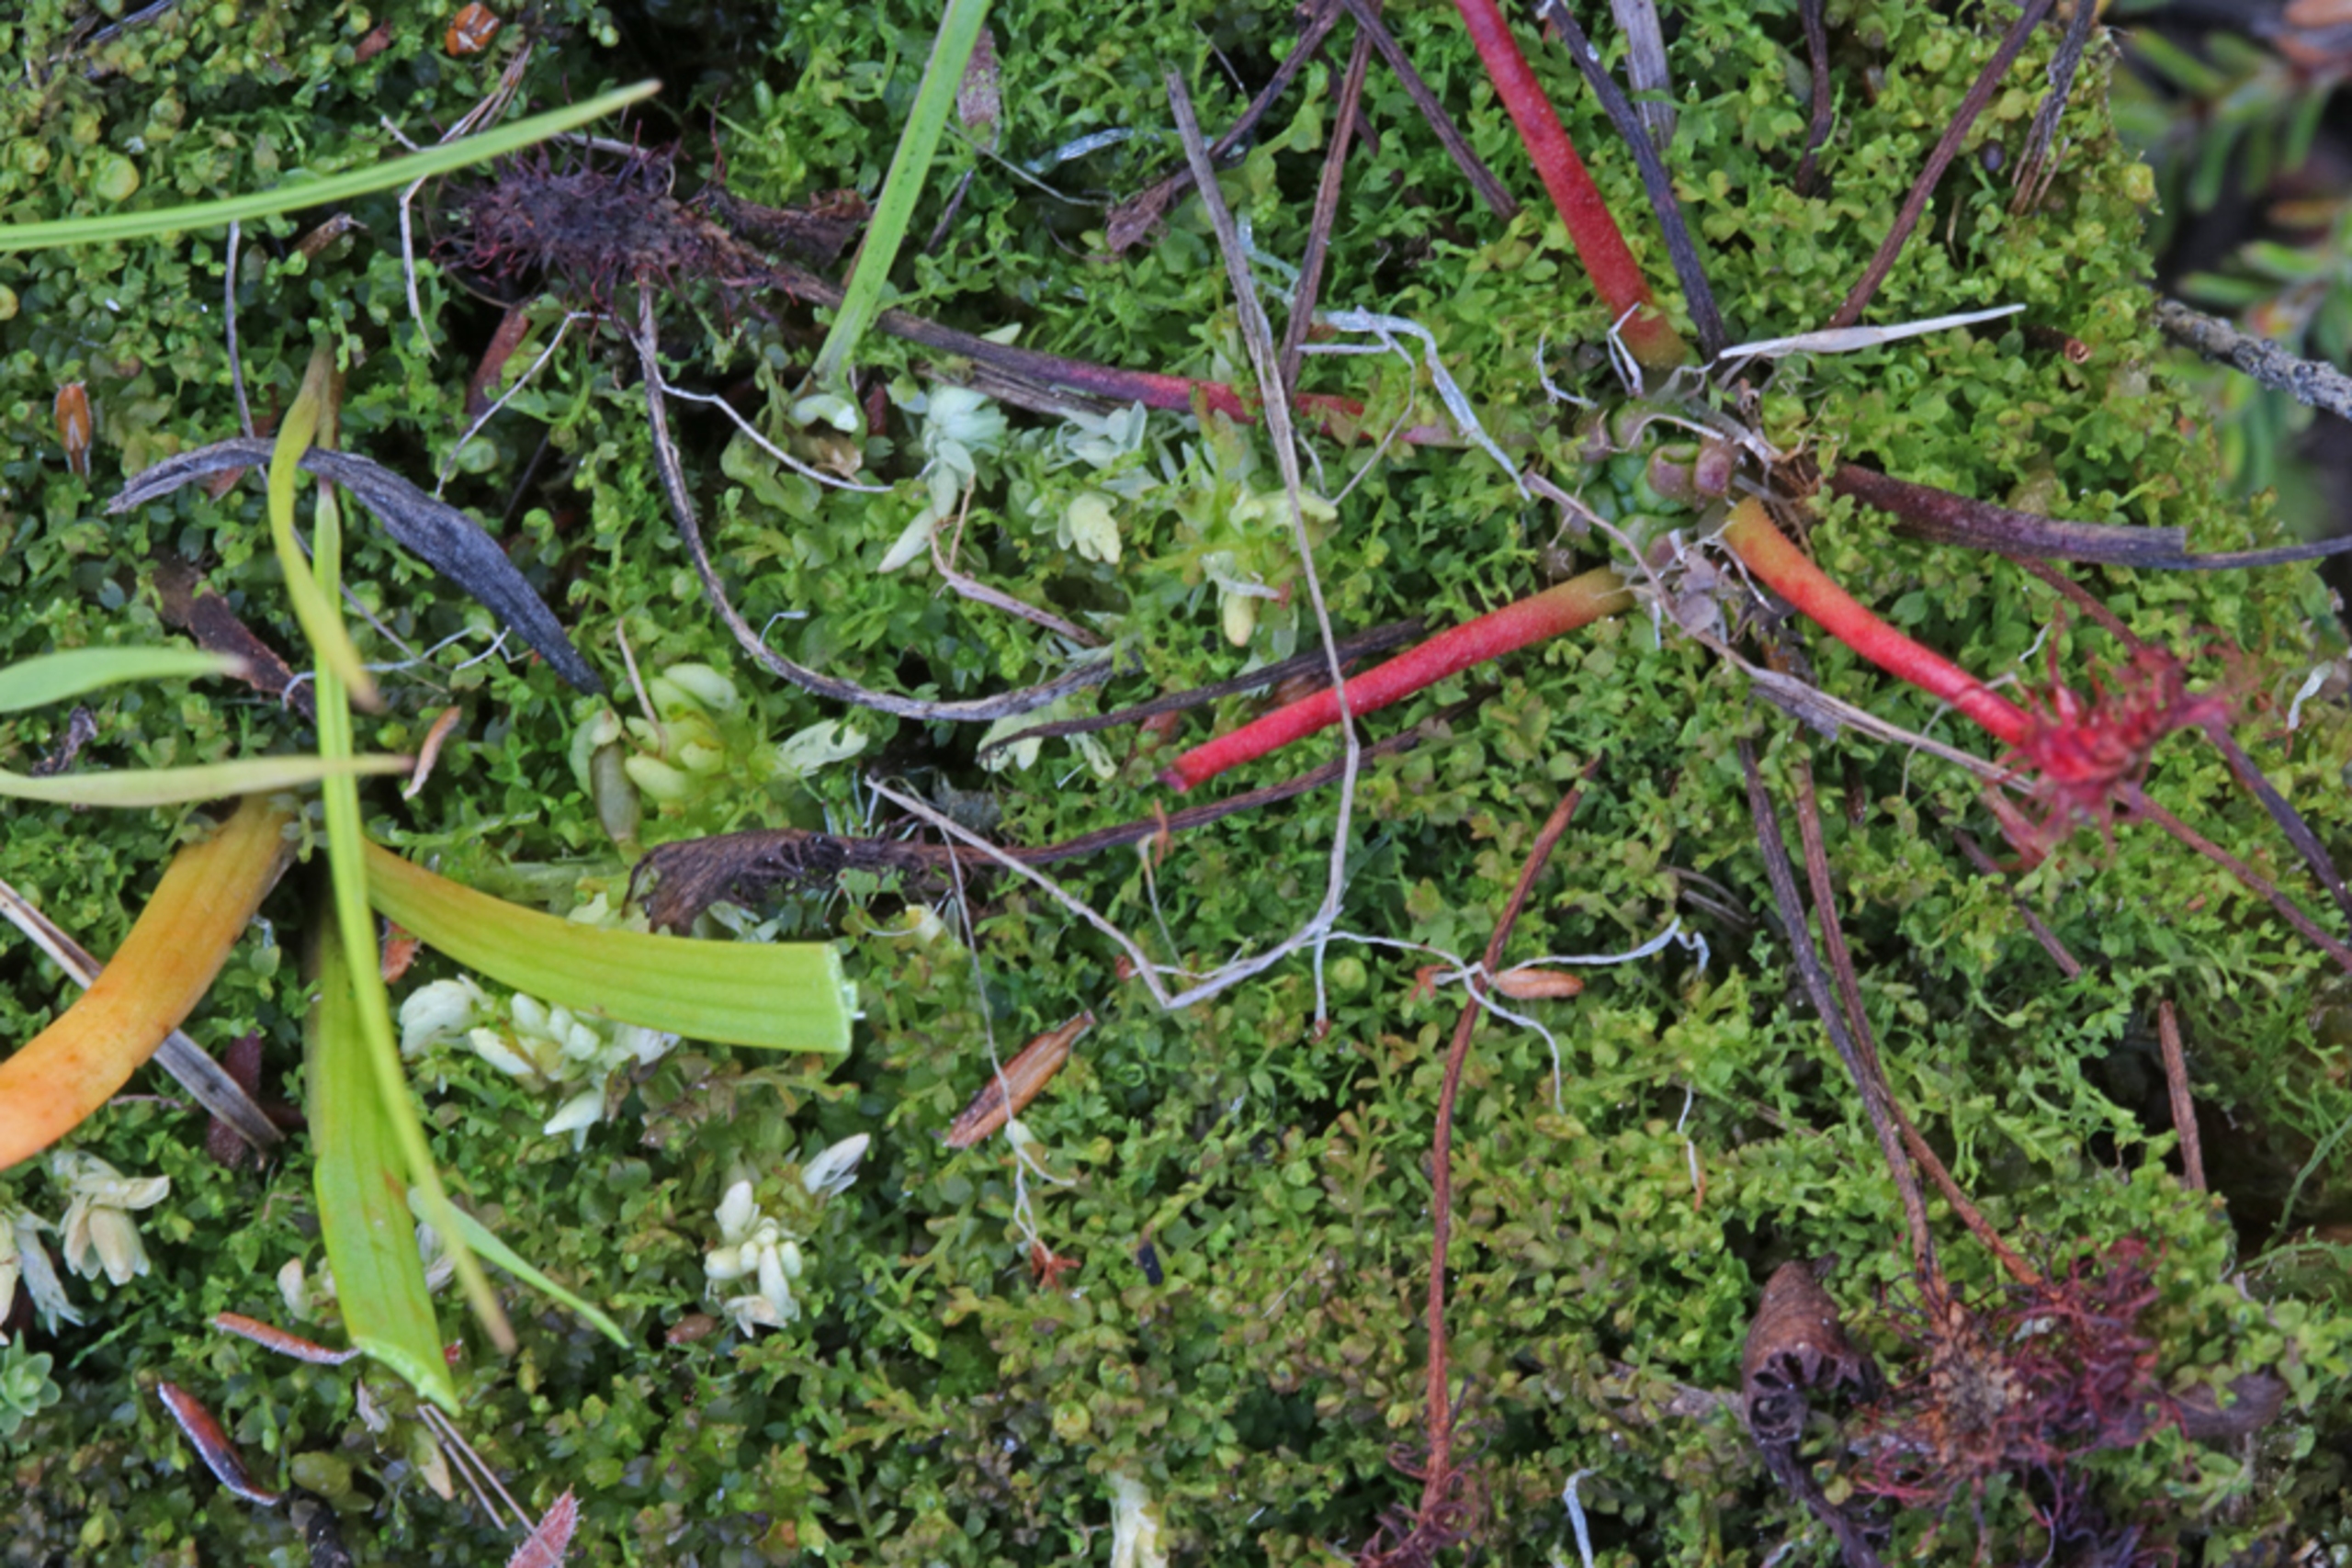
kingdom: Plantae
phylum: Marchantiophyta
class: Jungermanniopsida
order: Jungermanniales
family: Anastrophyllaceae
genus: Gymnocolea
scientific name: Gymnocolea inflata
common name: Opblæst blæremos
